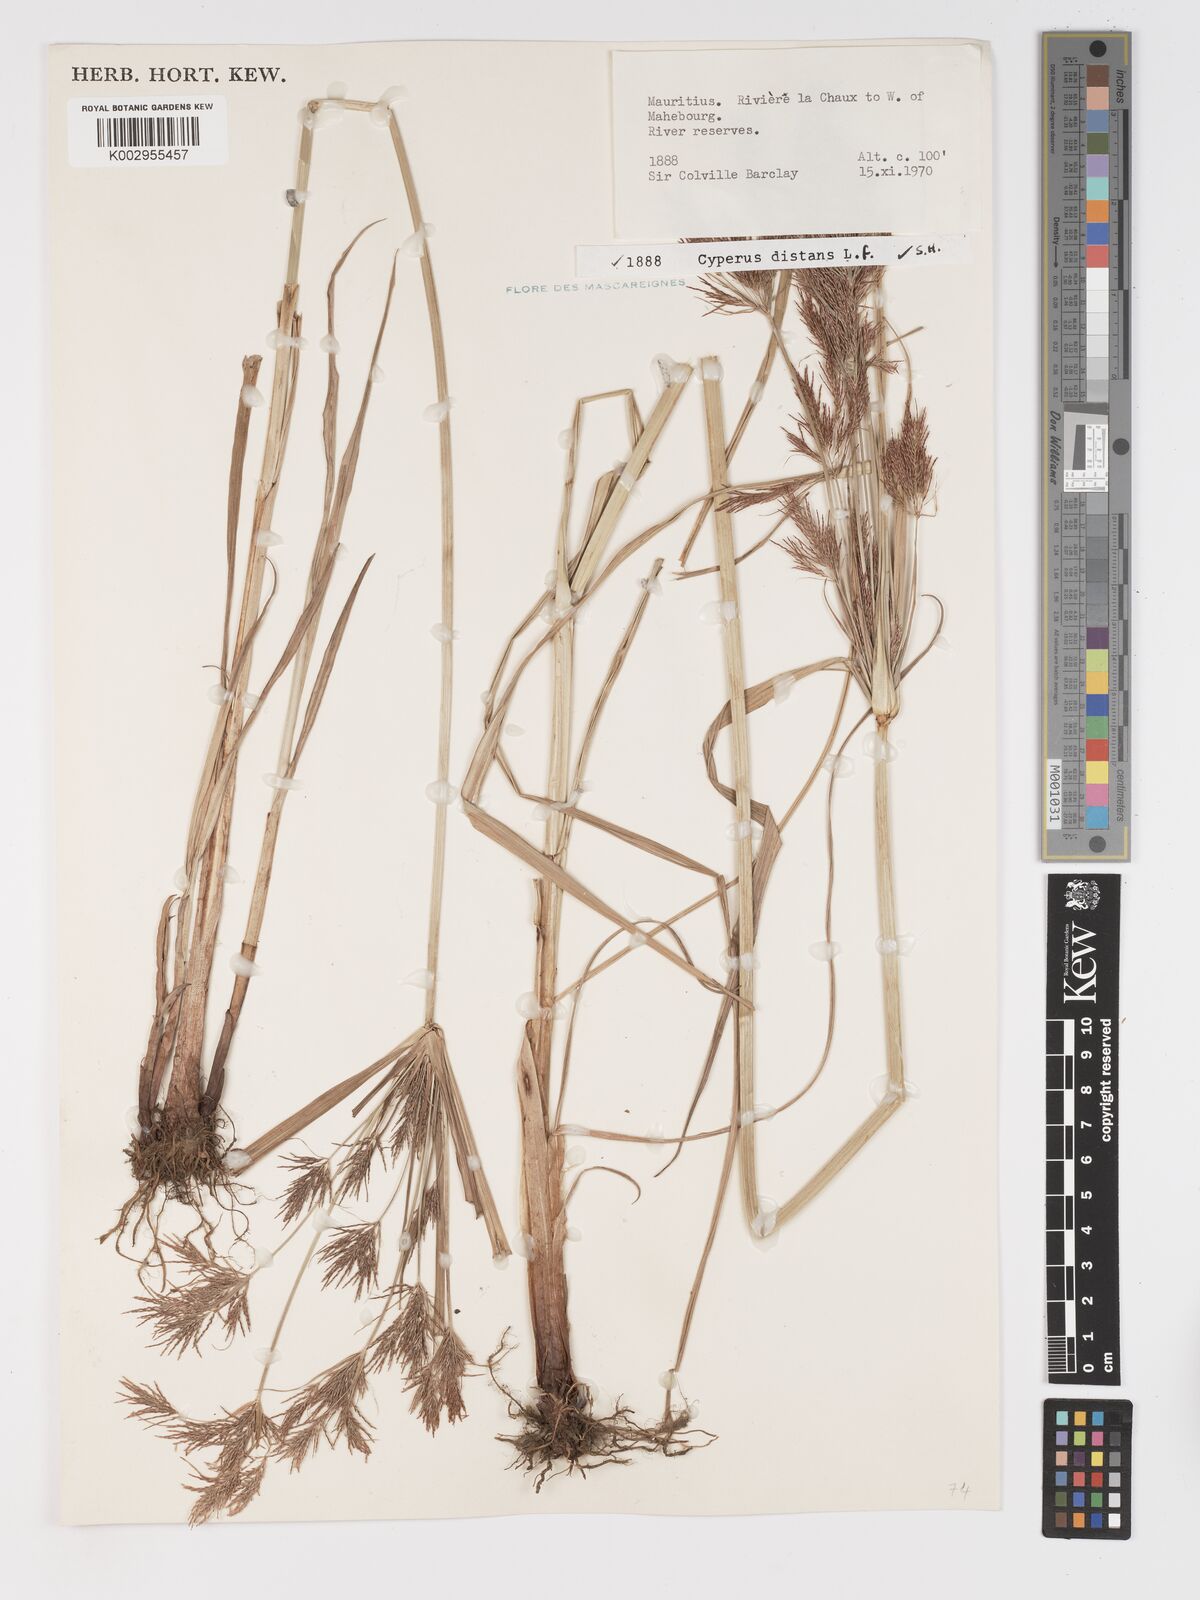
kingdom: Plantae
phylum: Tracheophyta
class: Liliopsida
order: Poales
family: Cyperaceae
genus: Cyperus
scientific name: Cyperus distans
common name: Slender cyperus
